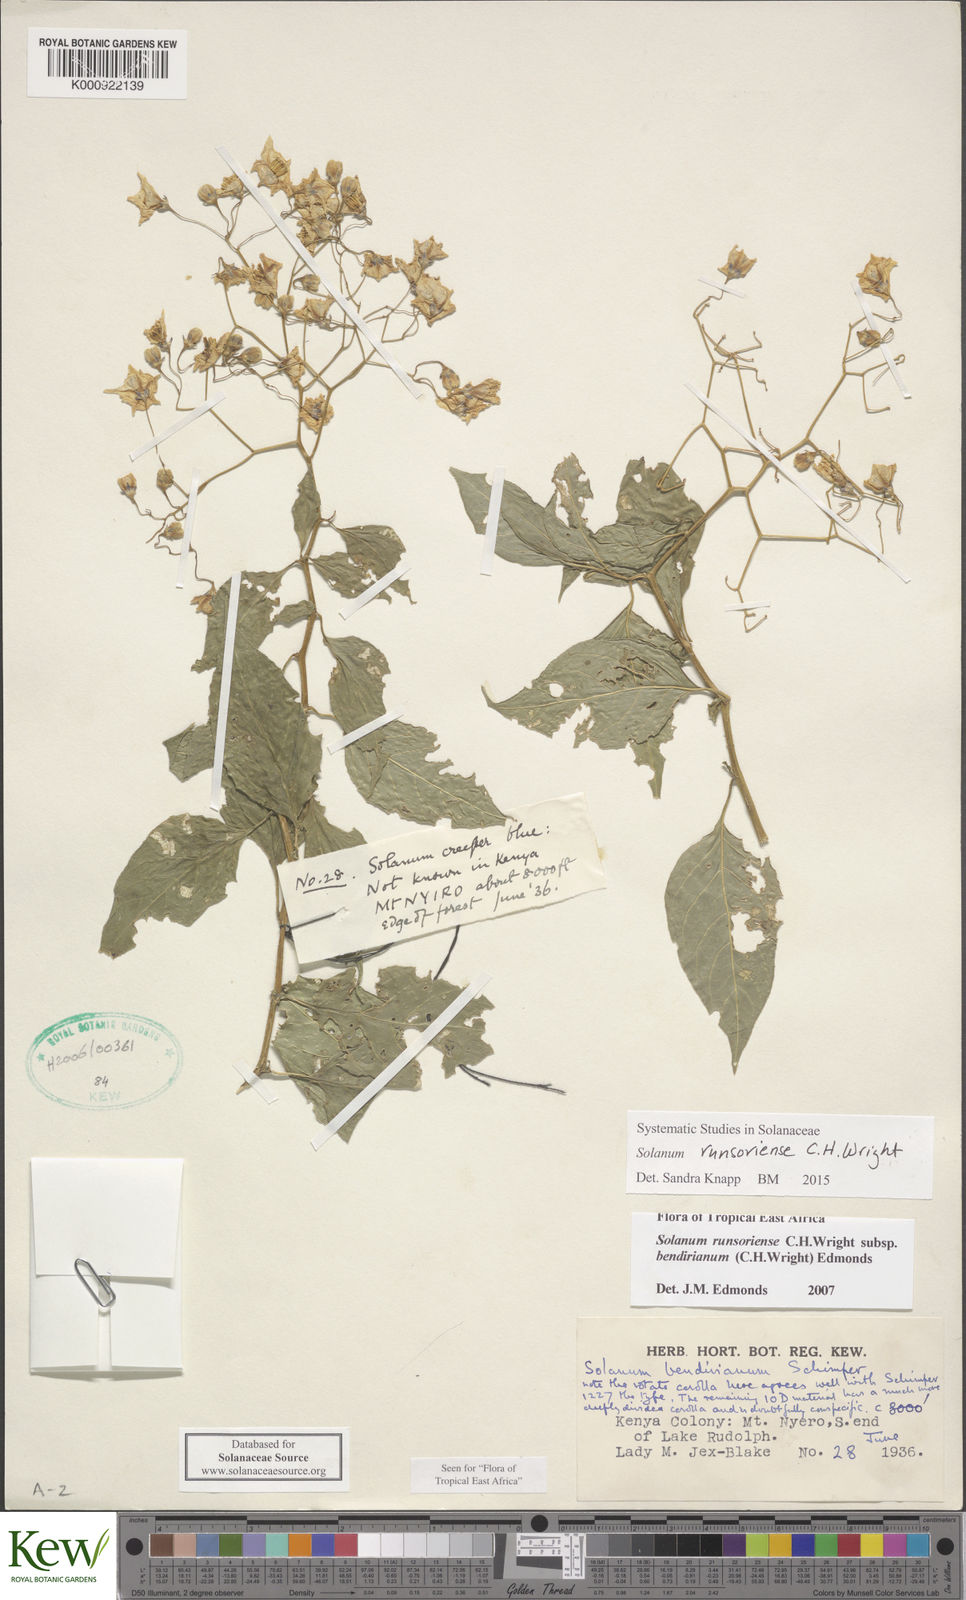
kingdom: Plantae
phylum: Tracheophyta
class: Magnoliopsida
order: Solanales
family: Solanaceae
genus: Solanum
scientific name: Solanum runsoriense
